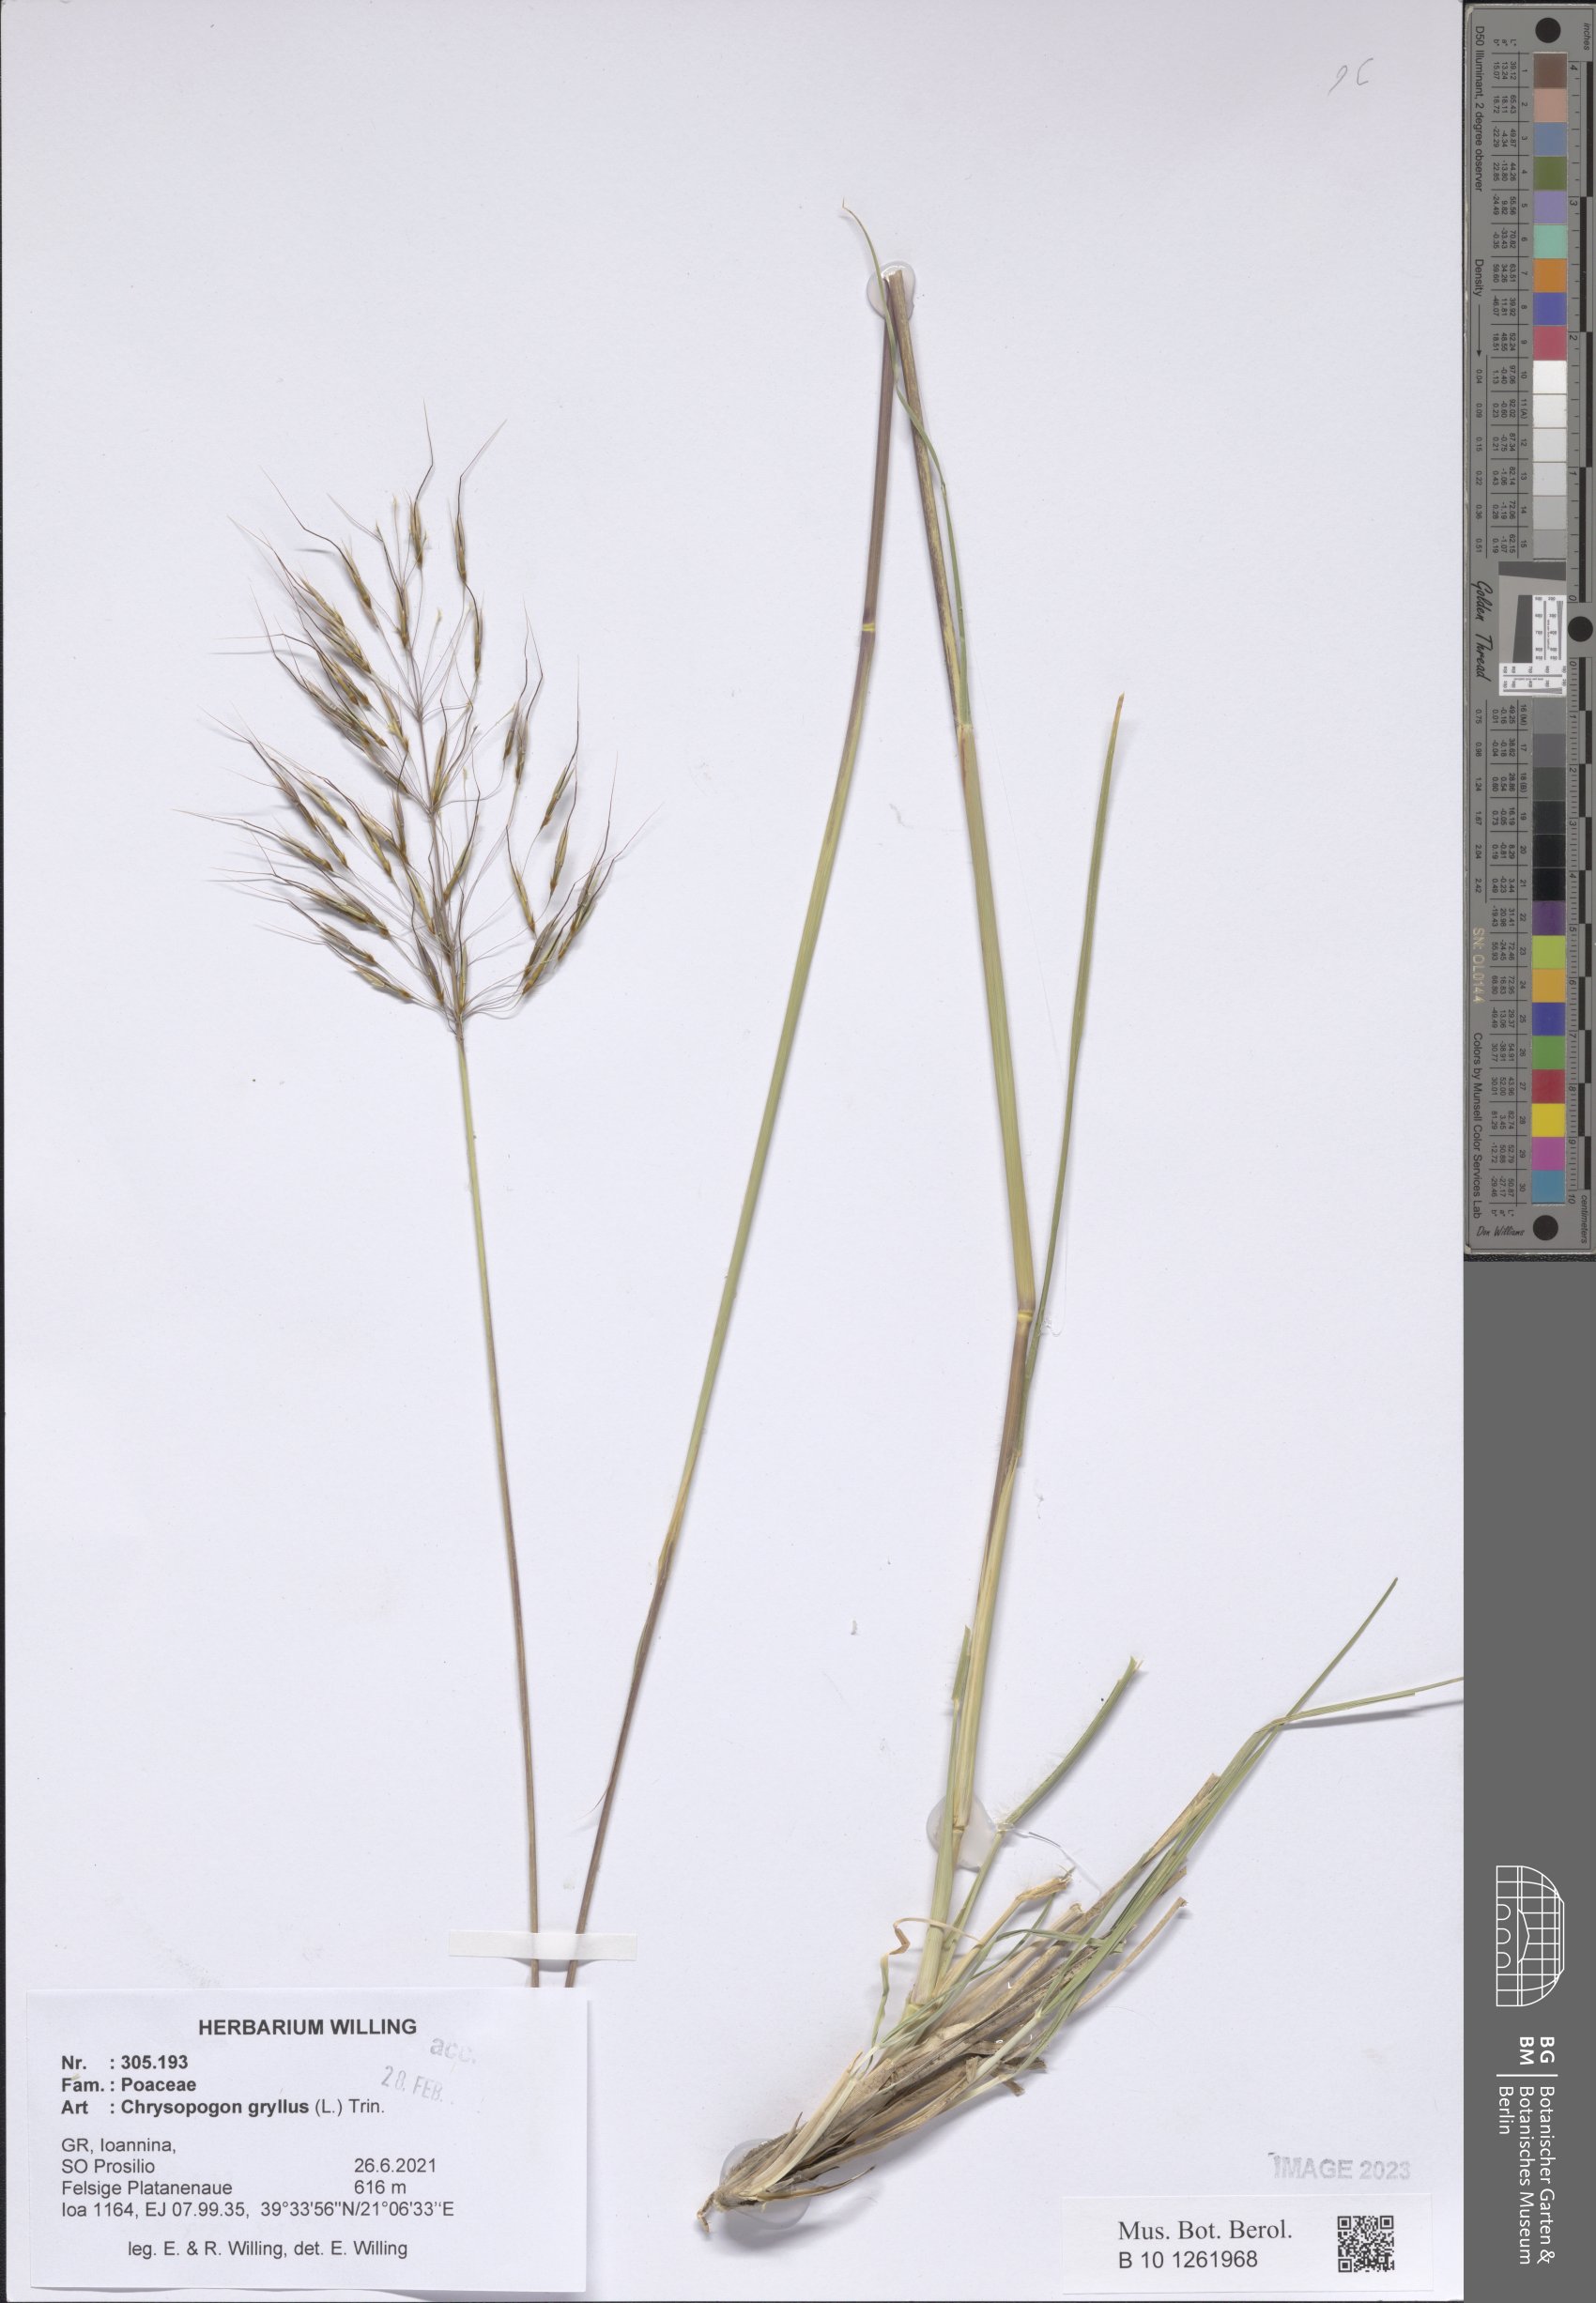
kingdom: Plantae
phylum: Tracheophyta
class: Liliopsida
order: Poales
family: Poaceae
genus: Chrysopogon
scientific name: Chrysopogon gryllus
